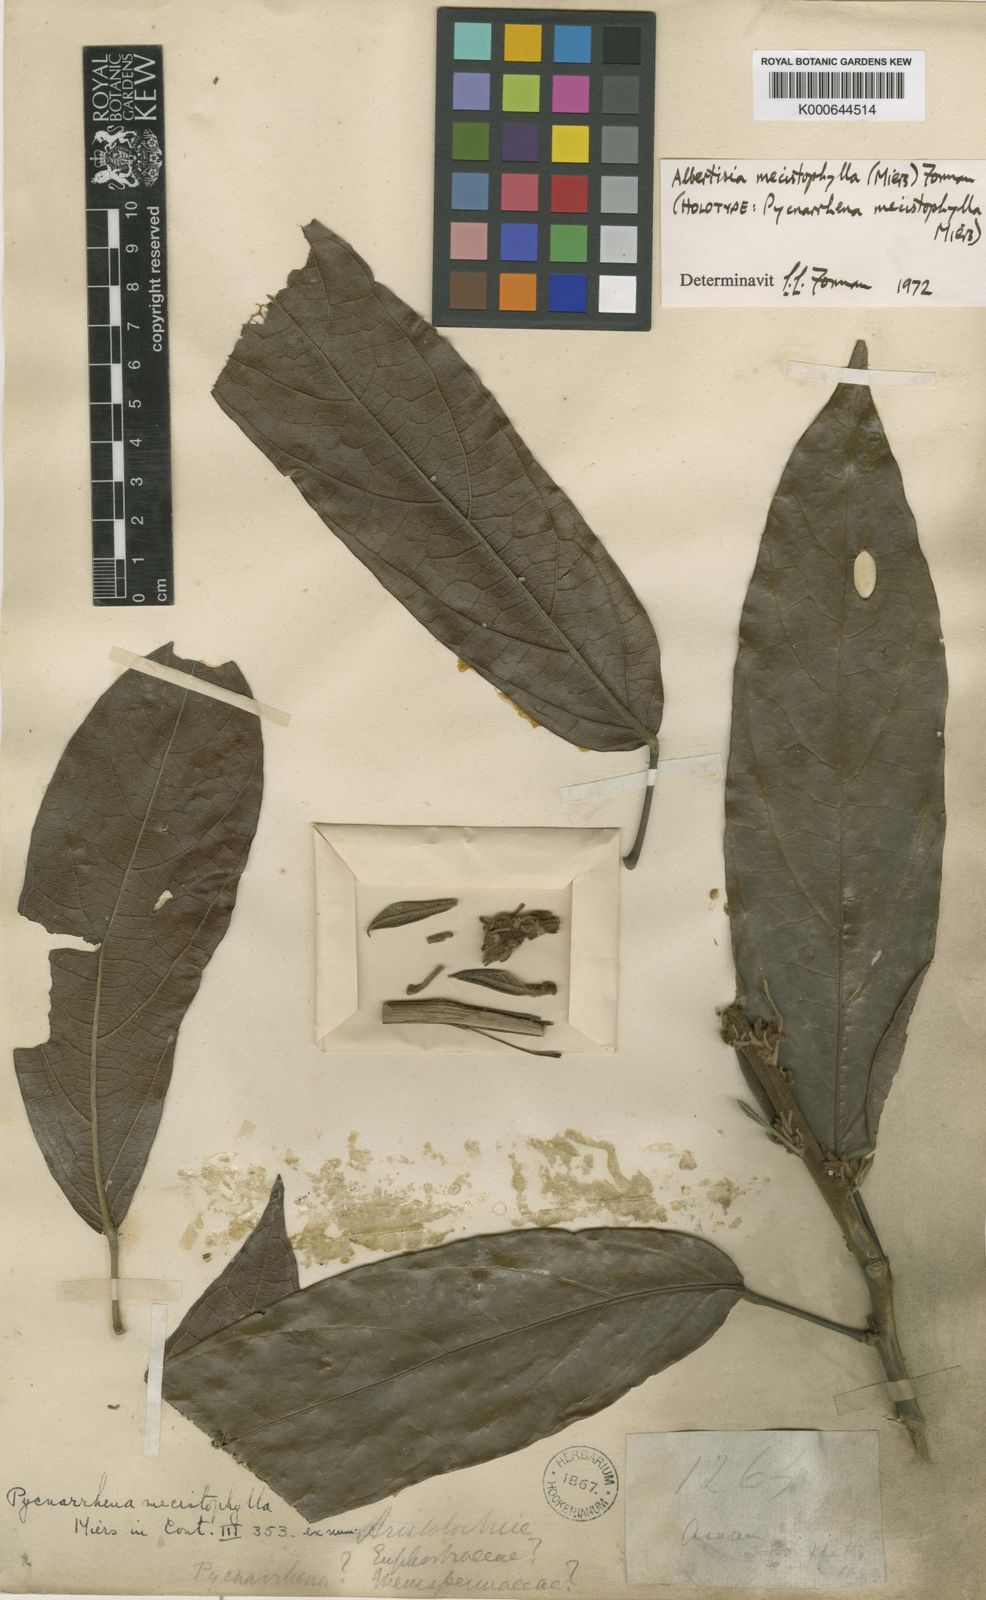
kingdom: Plantae
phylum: Tracheophyta
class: Magnoliopsida
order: Ranunculales
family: Menispermaceae
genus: Albertisia
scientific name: Albertisia mecistophylla
